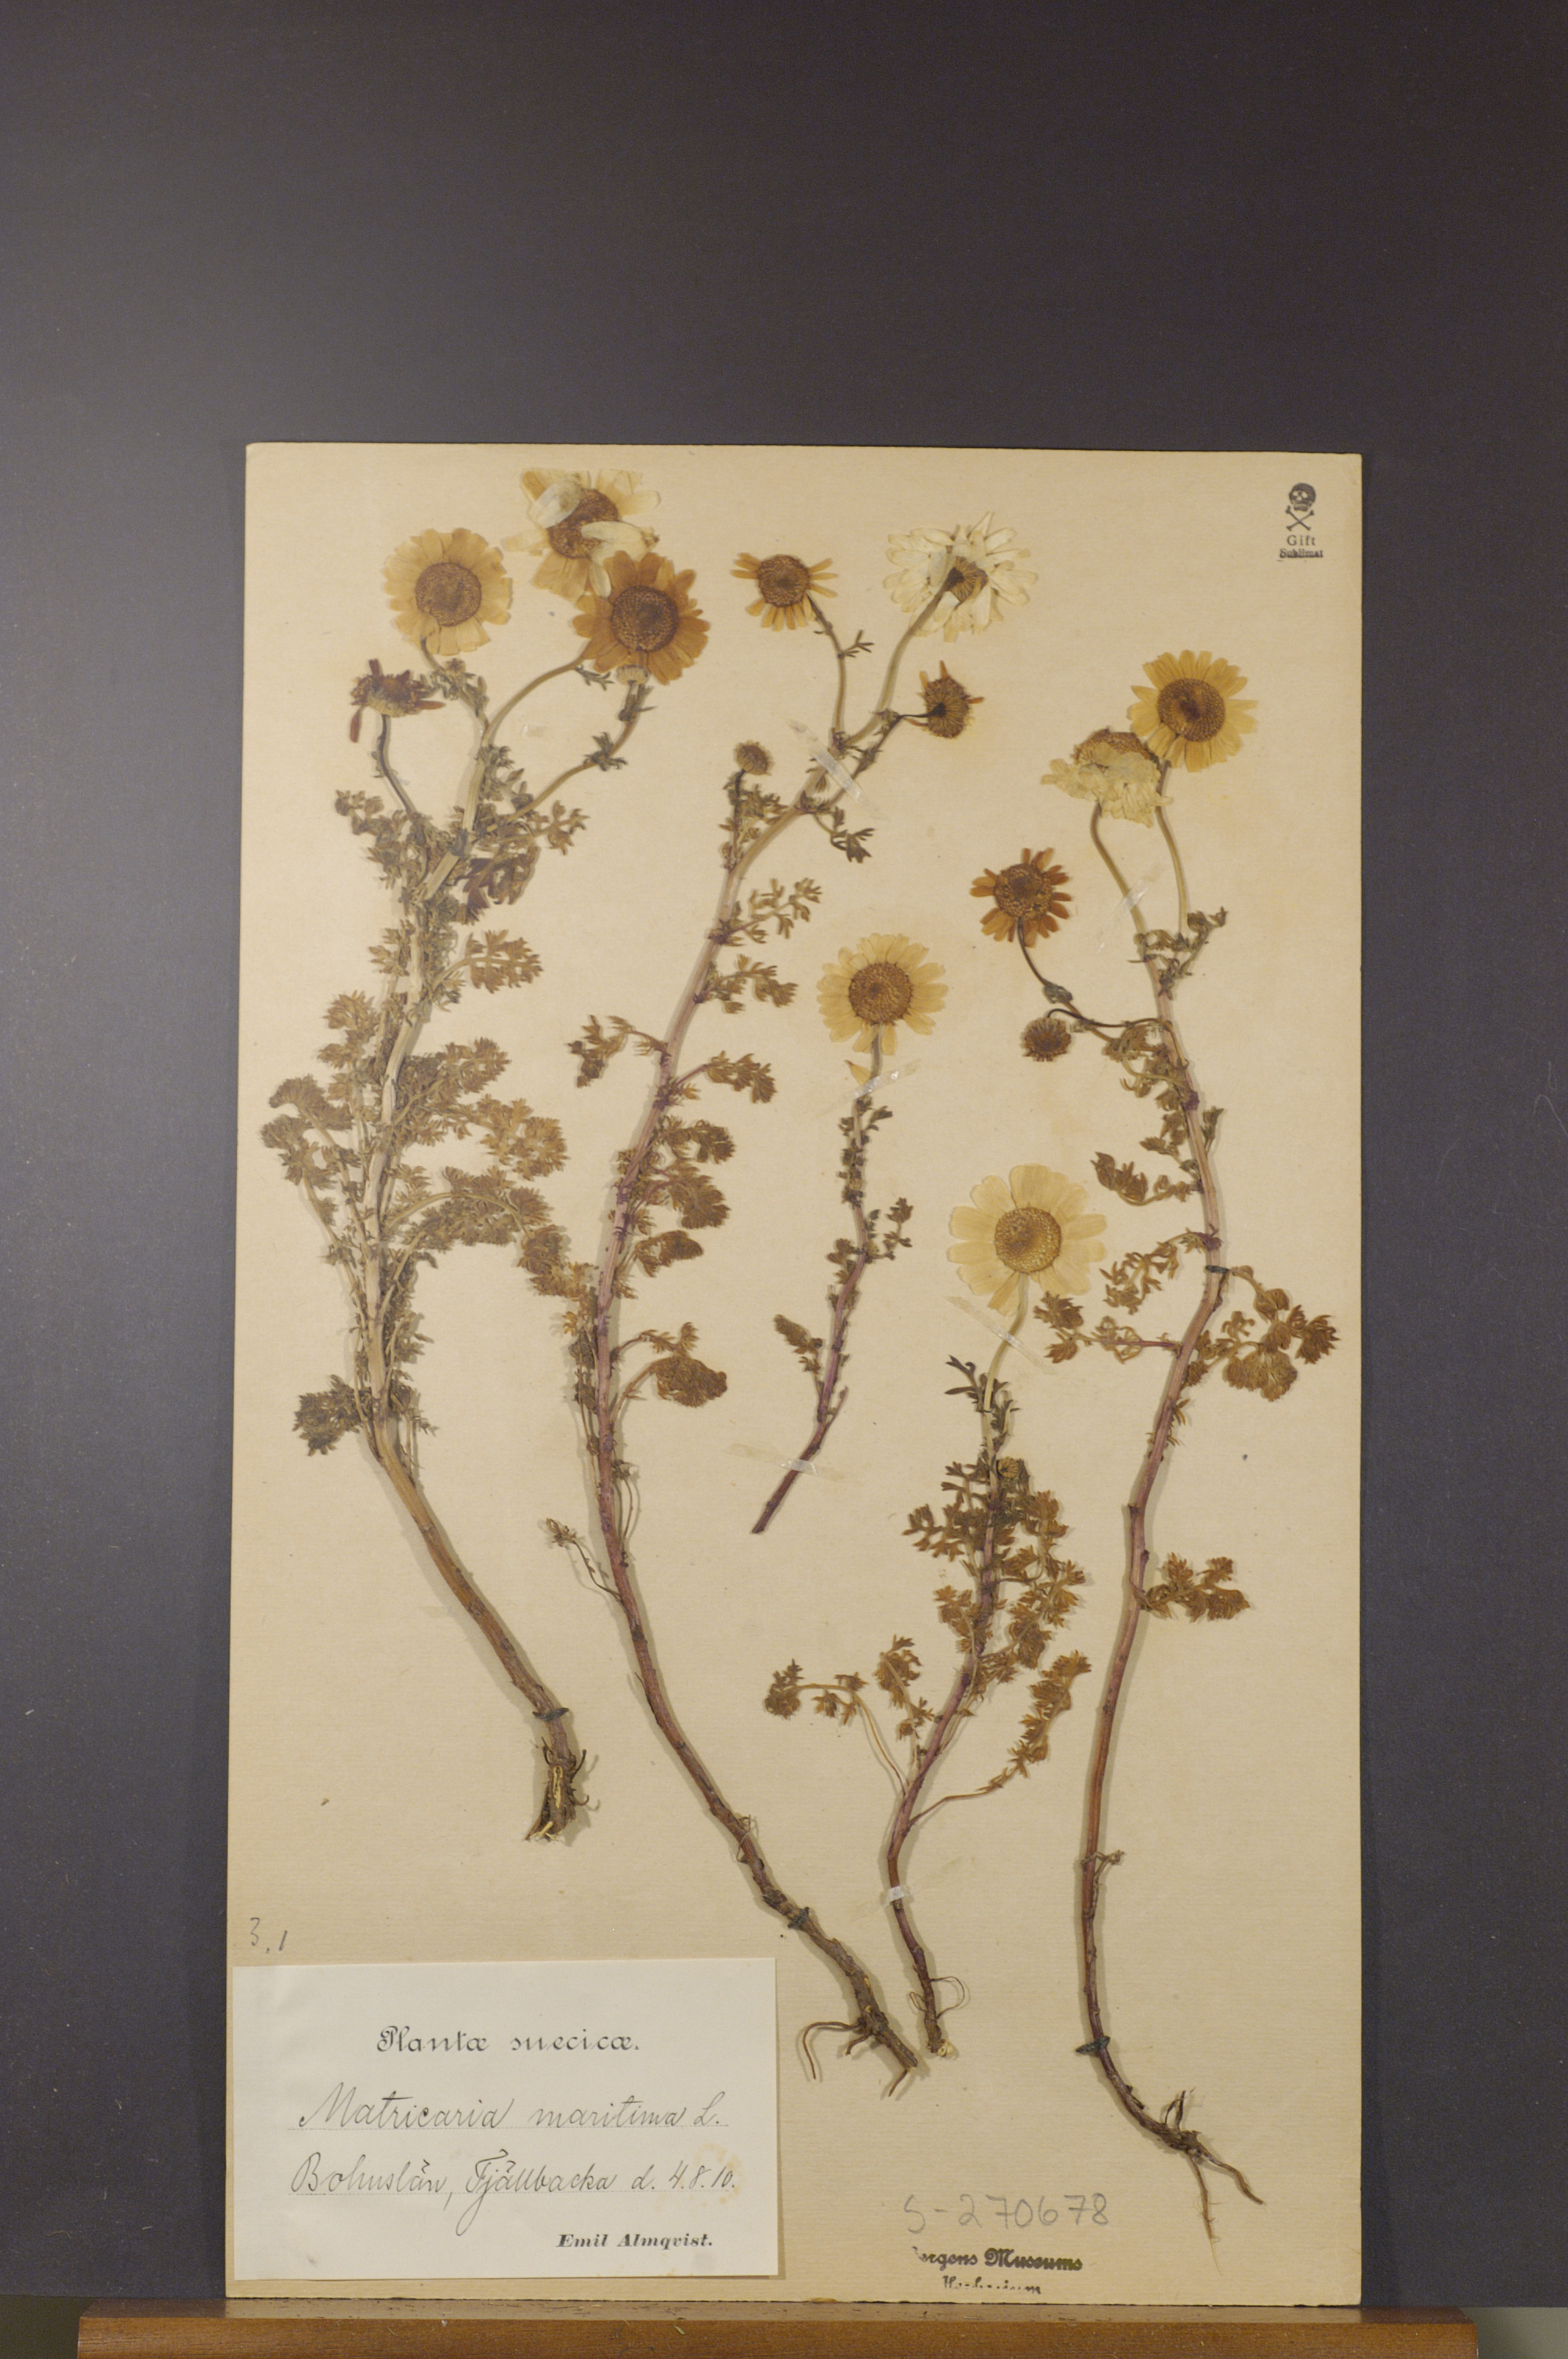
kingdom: Plantae
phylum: Tracheophyta
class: Magnoliopsida
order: Asterales
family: Asteraceae
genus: Tripleurospermum
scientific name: Tripleurospermum maritimum
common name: Sea mayweed
